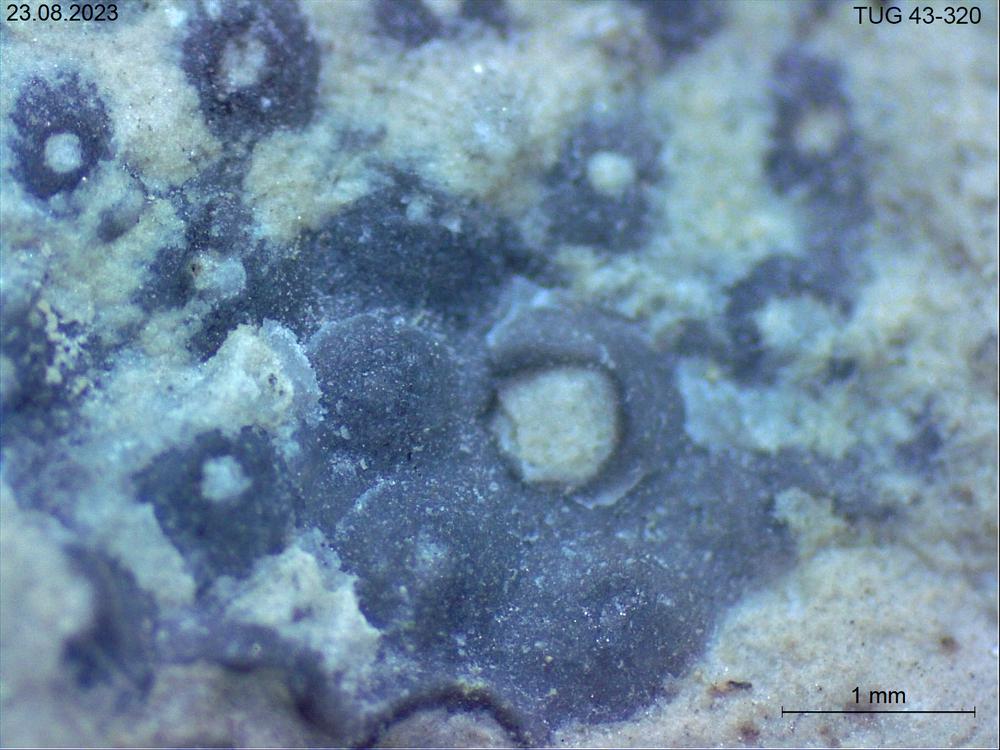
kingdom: Animalia
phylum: Brachiopoda
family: Sowerbyellidae
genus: Sowerbyella
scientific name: Sowerbyella
